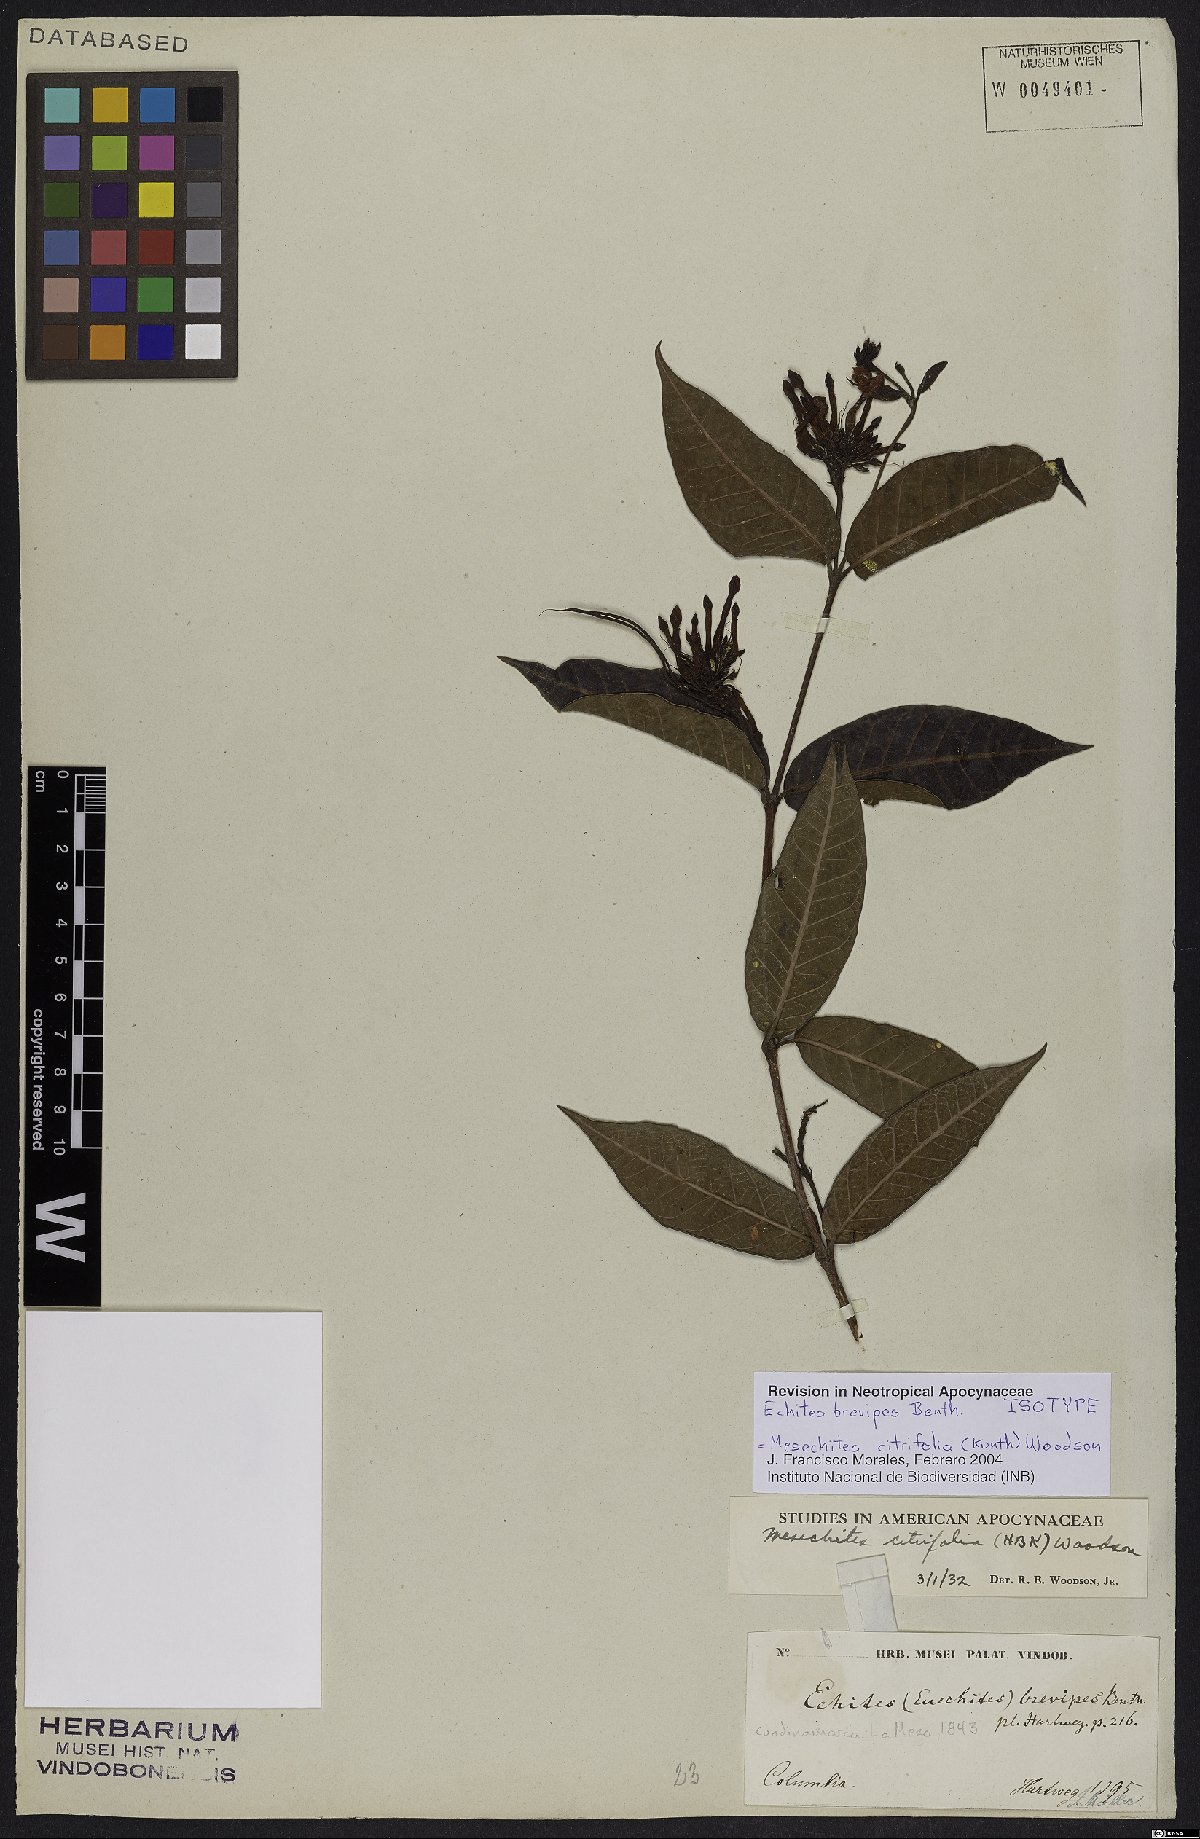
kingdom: Plantae
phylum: Tracheophyta
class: Magnoliopsida
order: Gentianales
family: Apocynaceae
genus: Mesechites
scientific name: Mesechites citrifolius
